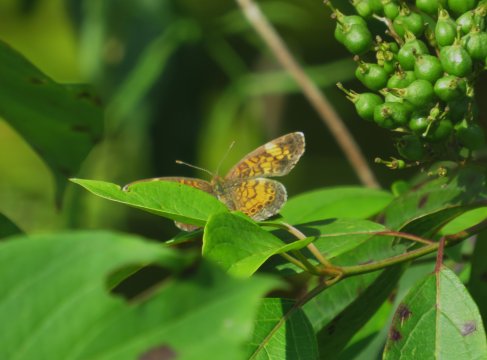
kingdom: Animalia
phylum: Arthropoda
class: Insecta
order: Lepidoptera
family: Nymphalidae
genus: Phyciodes
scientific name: Phyciodes tharos
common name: Pearl Crescent
